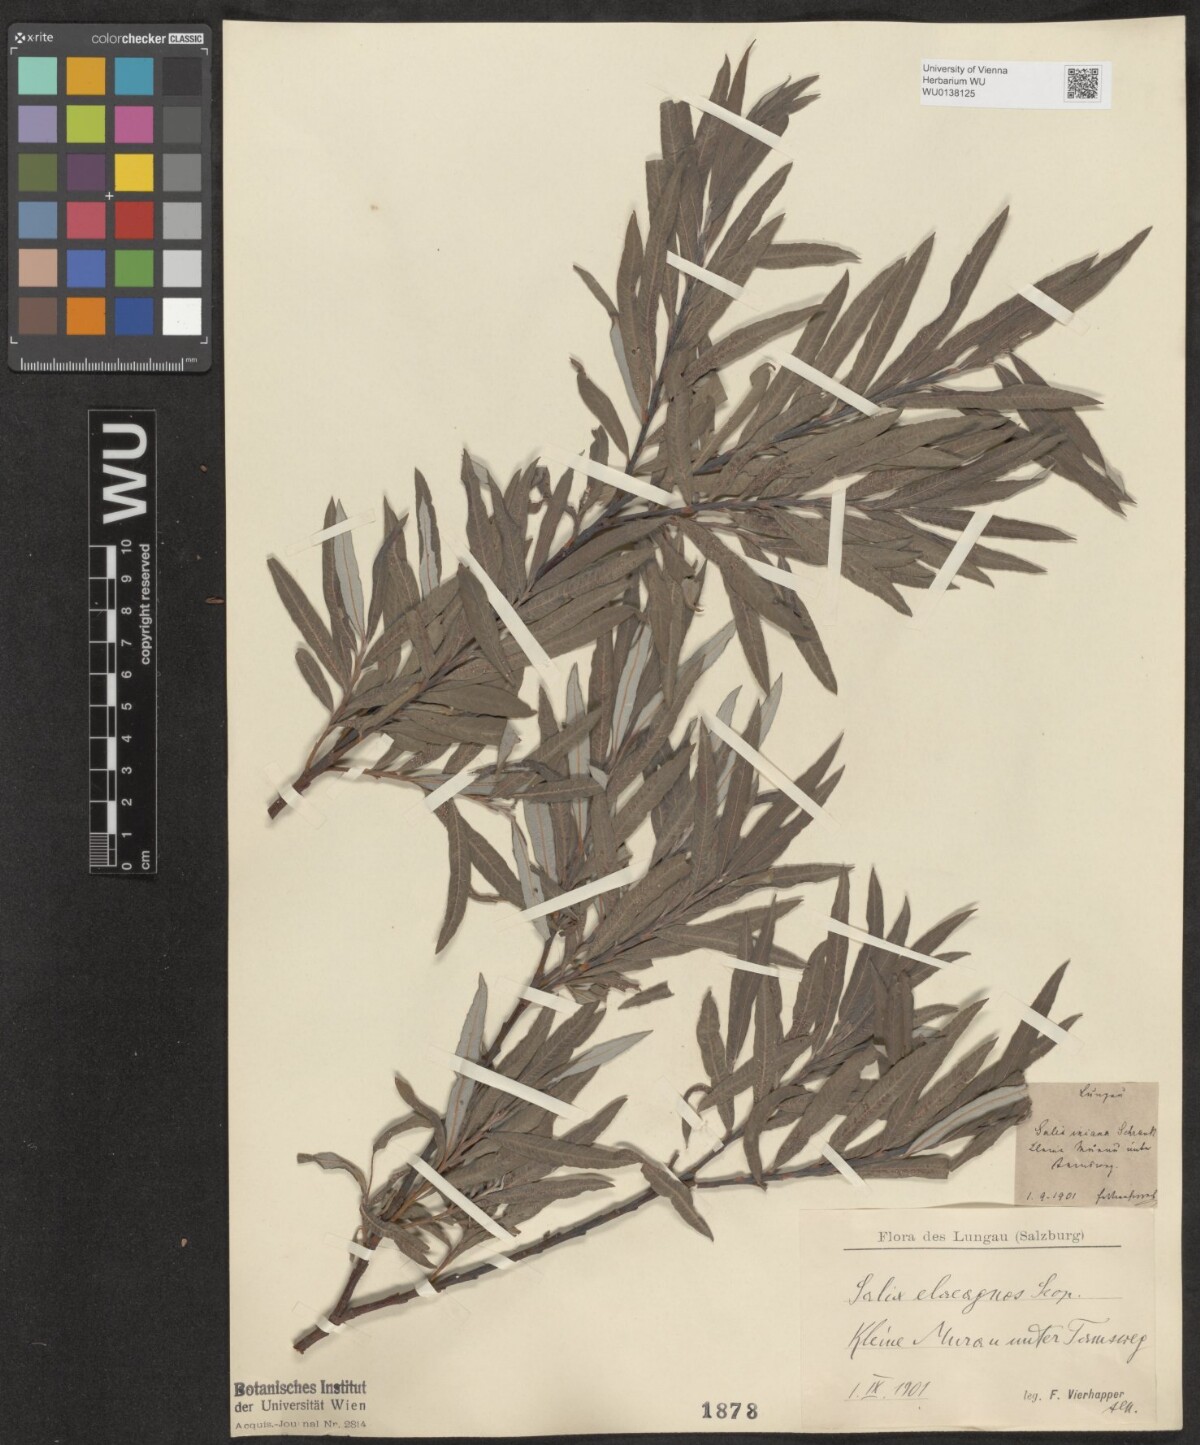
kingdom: Plantae
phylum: Tracheophyta
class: Magnoliopsida
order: Malpighiales
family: Salicaceae
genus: Salix
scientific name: Salix eleagnos
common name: Elaeagnus willow
